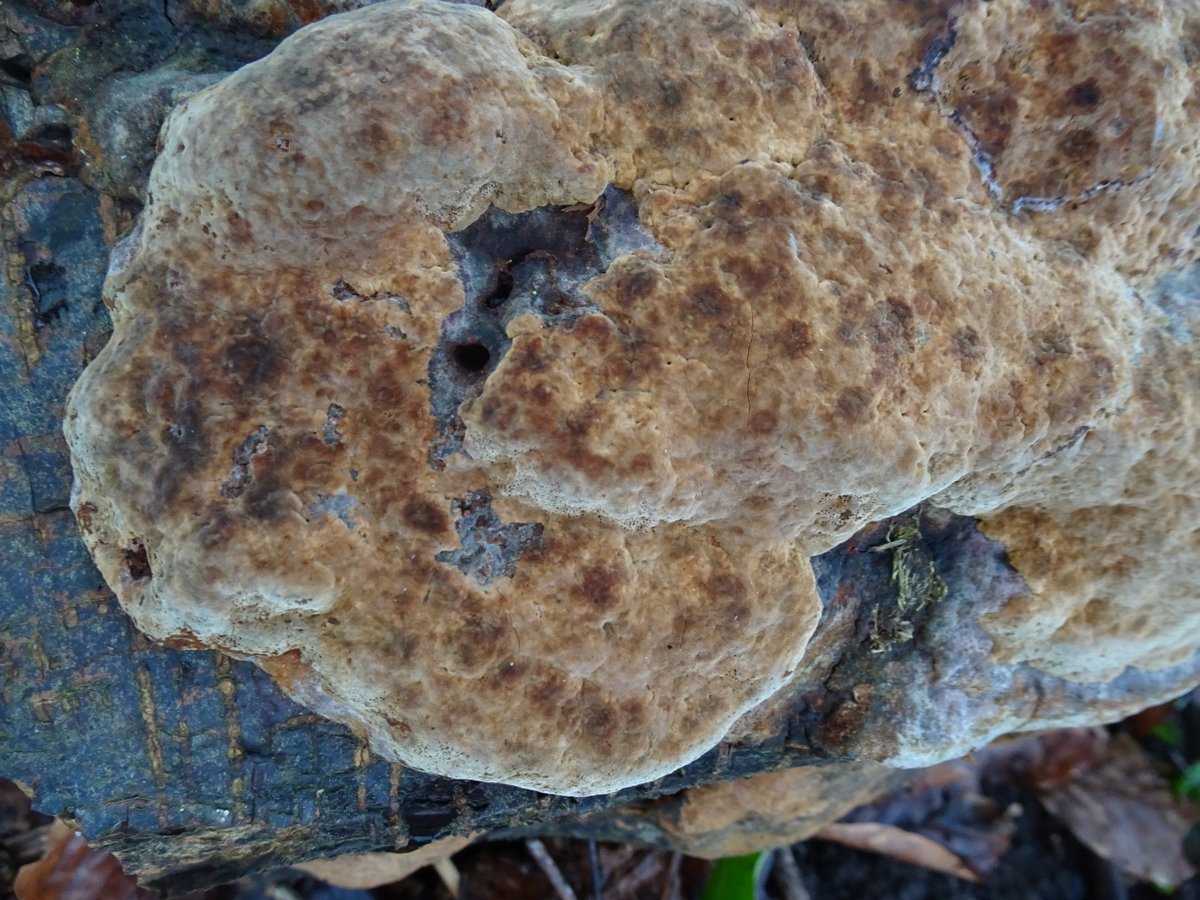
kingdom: Fungi
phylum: Basidiomycota
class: Agaricomycetes
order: Hymenochaetales
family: Hymenochaetaceae
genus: Mensularia
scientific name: Mensularia nodulosa
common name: bøge-spejlporesvamp
